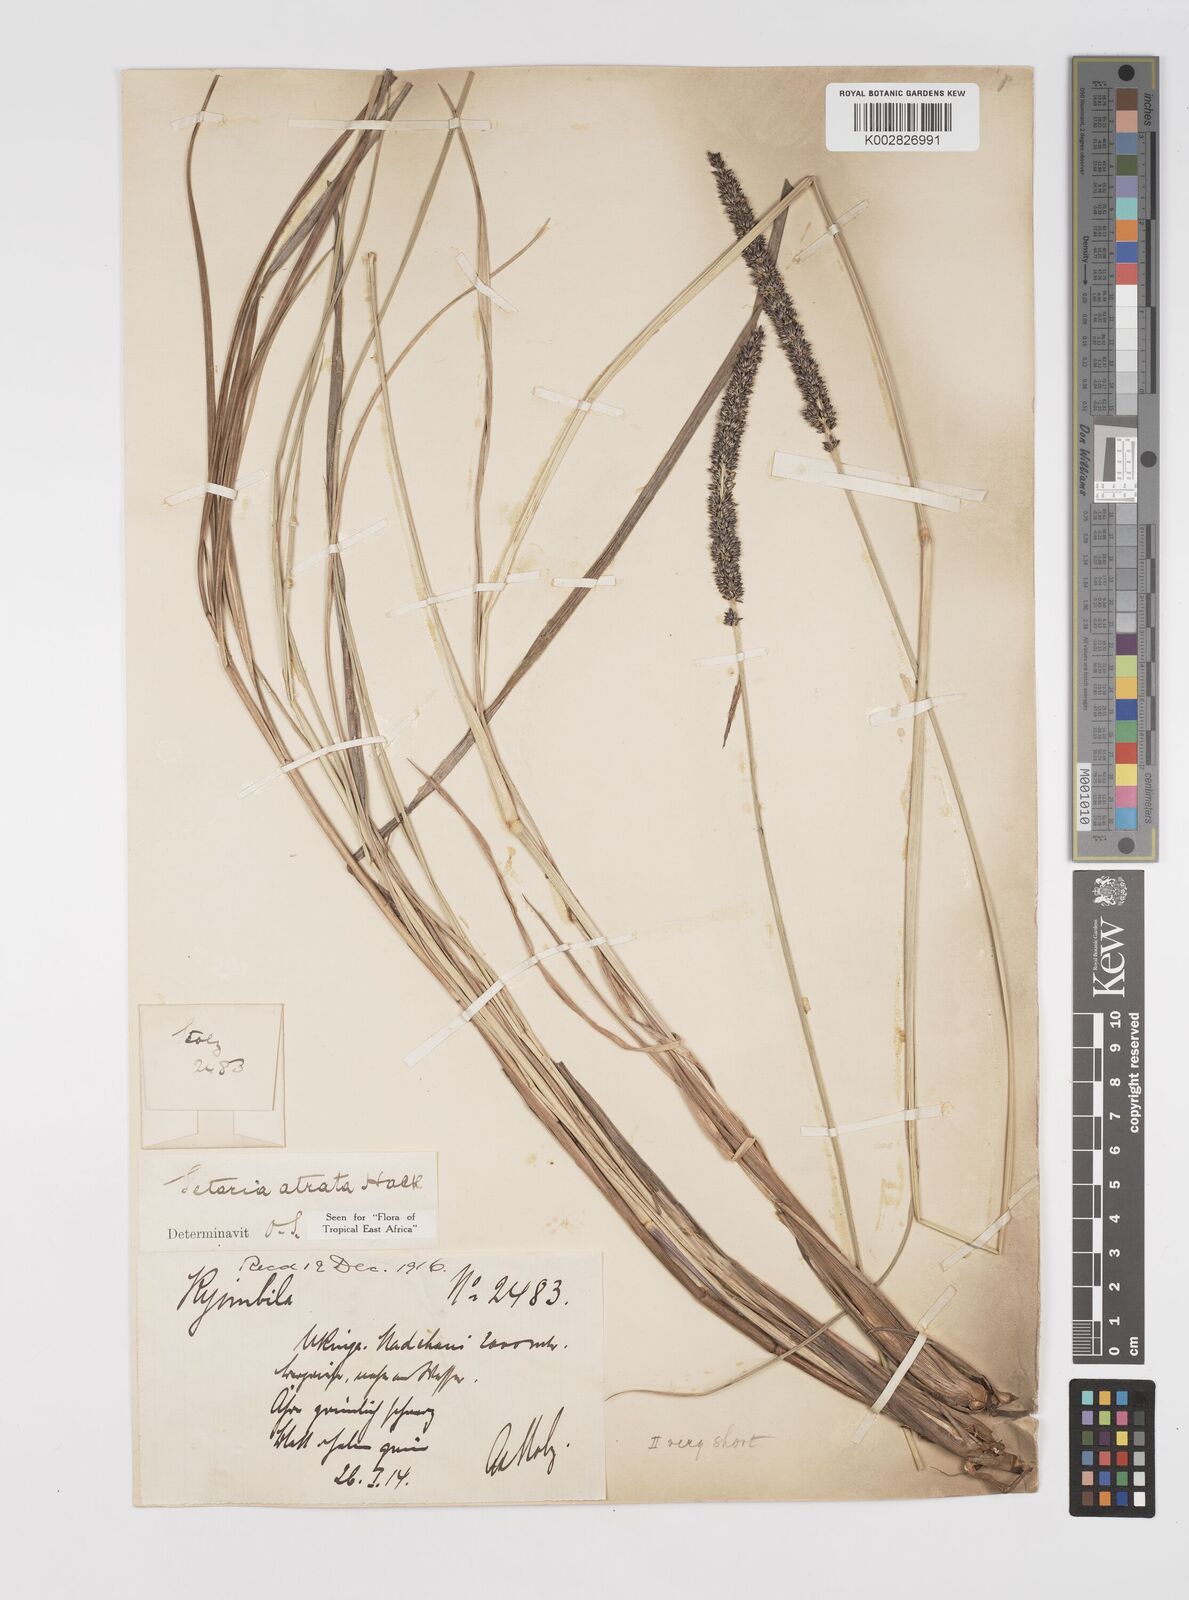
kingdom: Plantae
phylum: Tracheophyta
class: Liliopsida
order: Poales
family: Poaceae
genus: Setaria
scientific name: Setaria atrata
